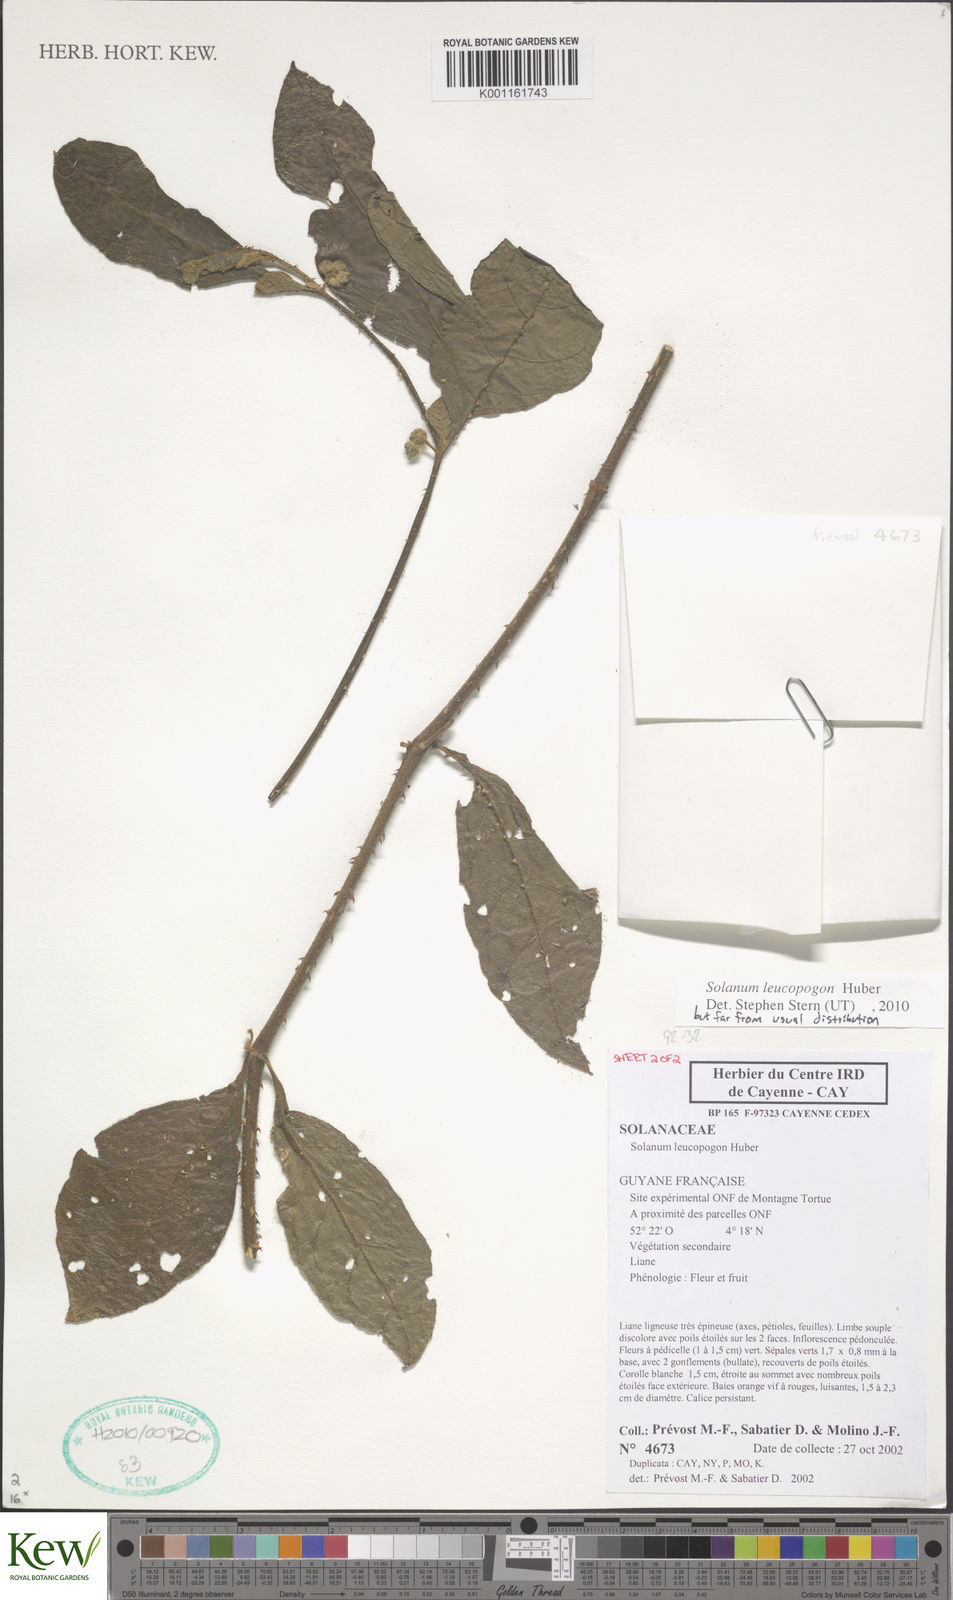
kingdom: Plantae
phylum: Tracheophyta
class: Magnoliopsida
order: Solanales
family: Solanaceae
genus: Solanum
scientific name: Solanum leucopogon
